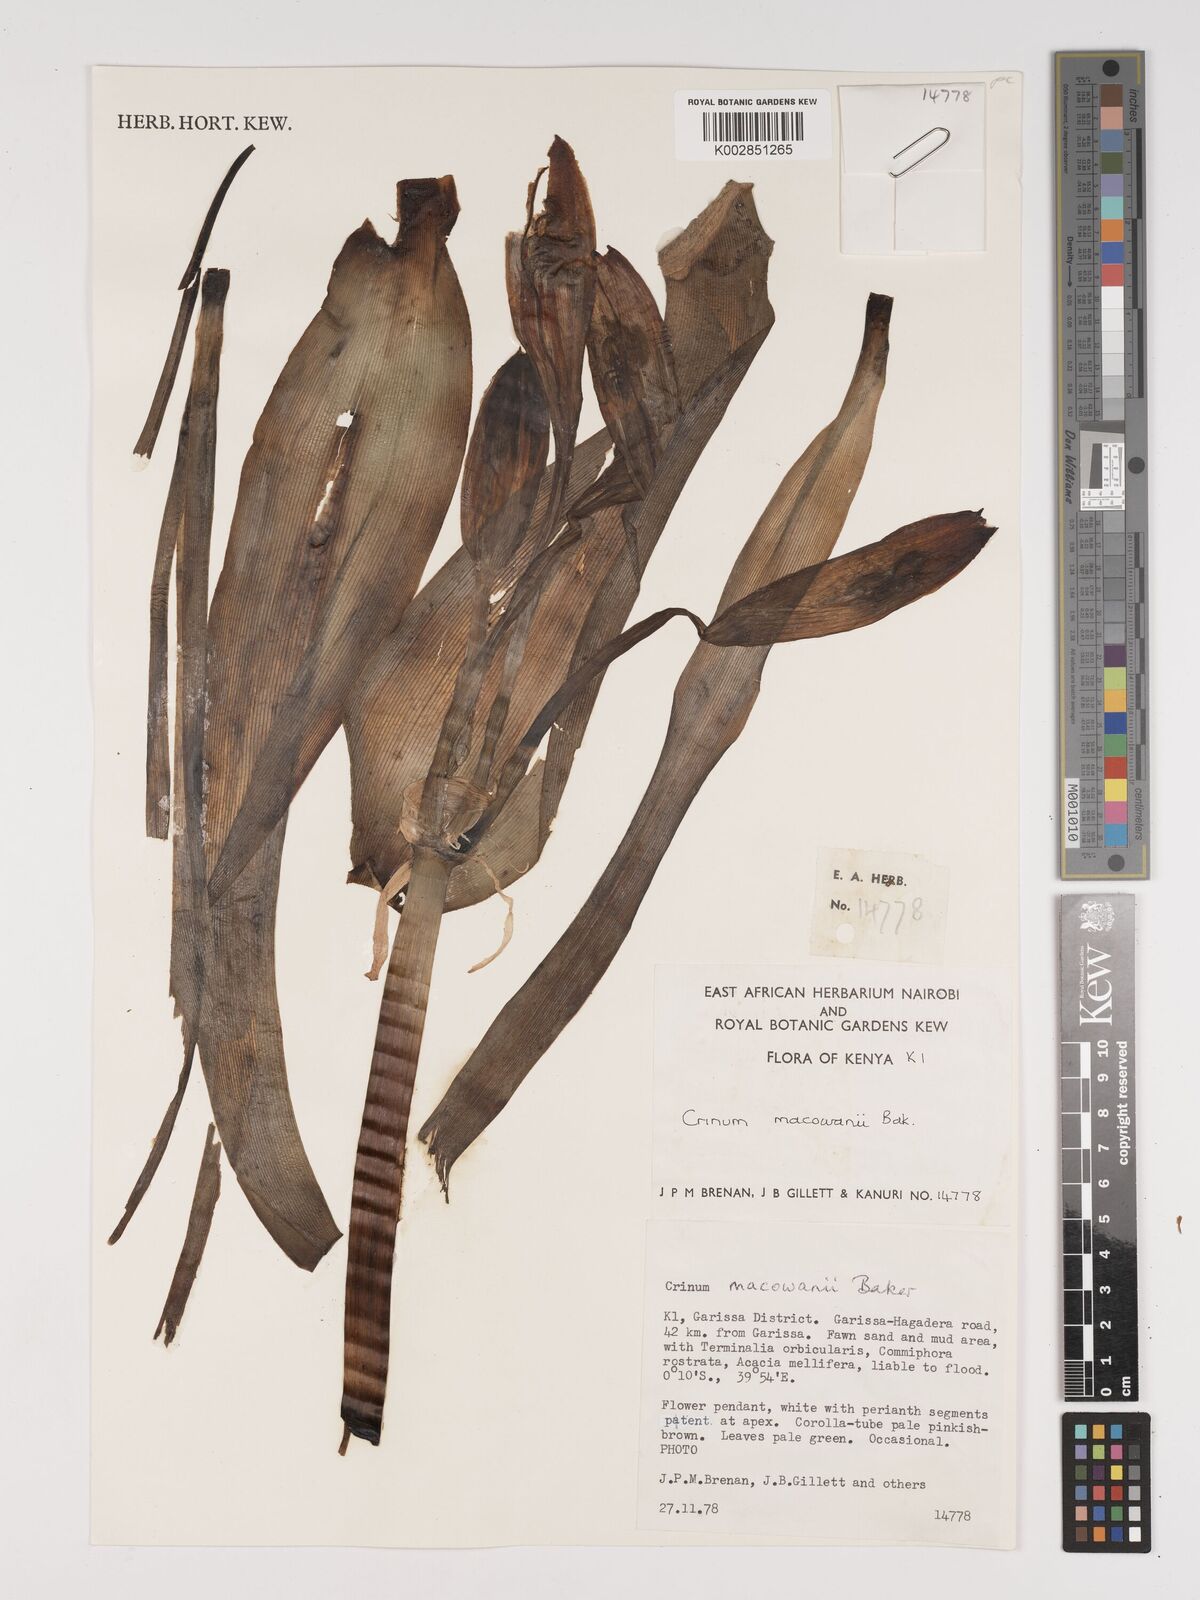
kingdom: Plantae
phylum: Tracheophyta
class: Liliopsida
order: Asparagales
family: Amaryllidaceae
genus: Crinum
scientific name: Crinum macowanii
